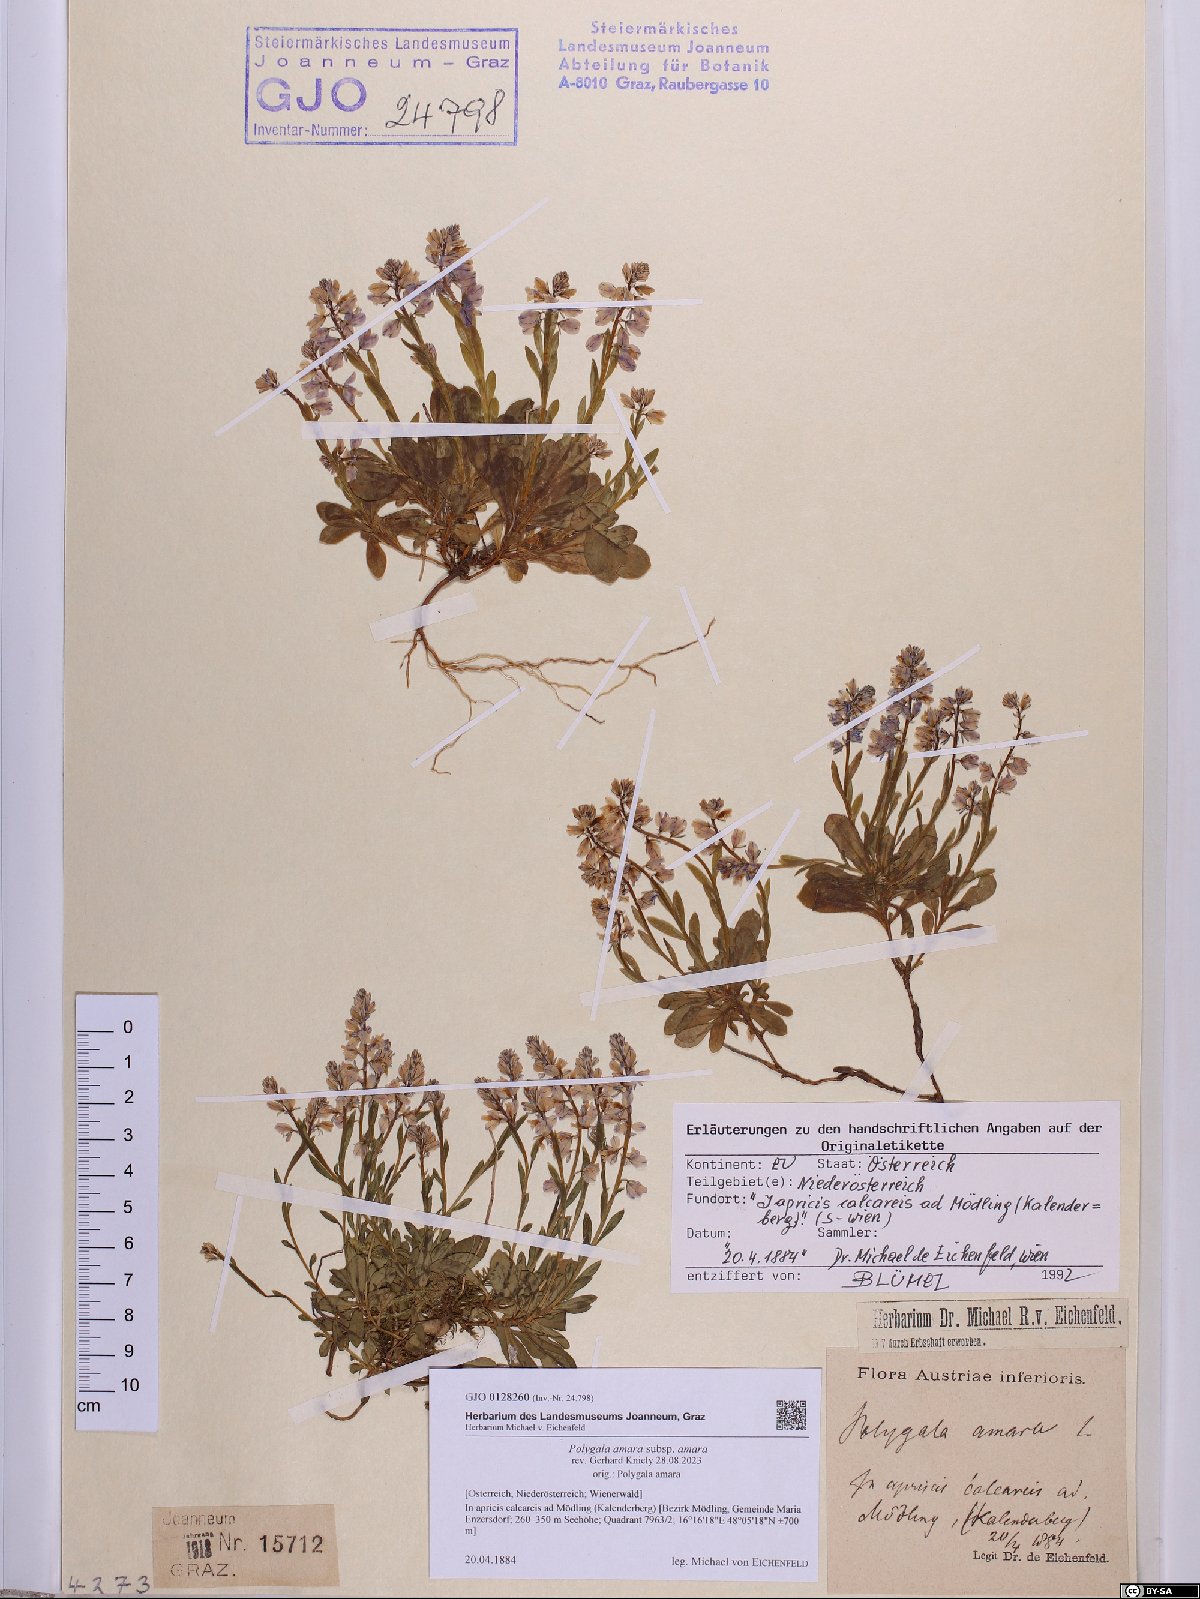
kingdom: Plantae
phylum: Tracheophyta
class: Magnoliopsida
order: Fabales
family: Polygalaceae
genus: Polygala
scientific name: Polygala amara
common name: Milkwort
